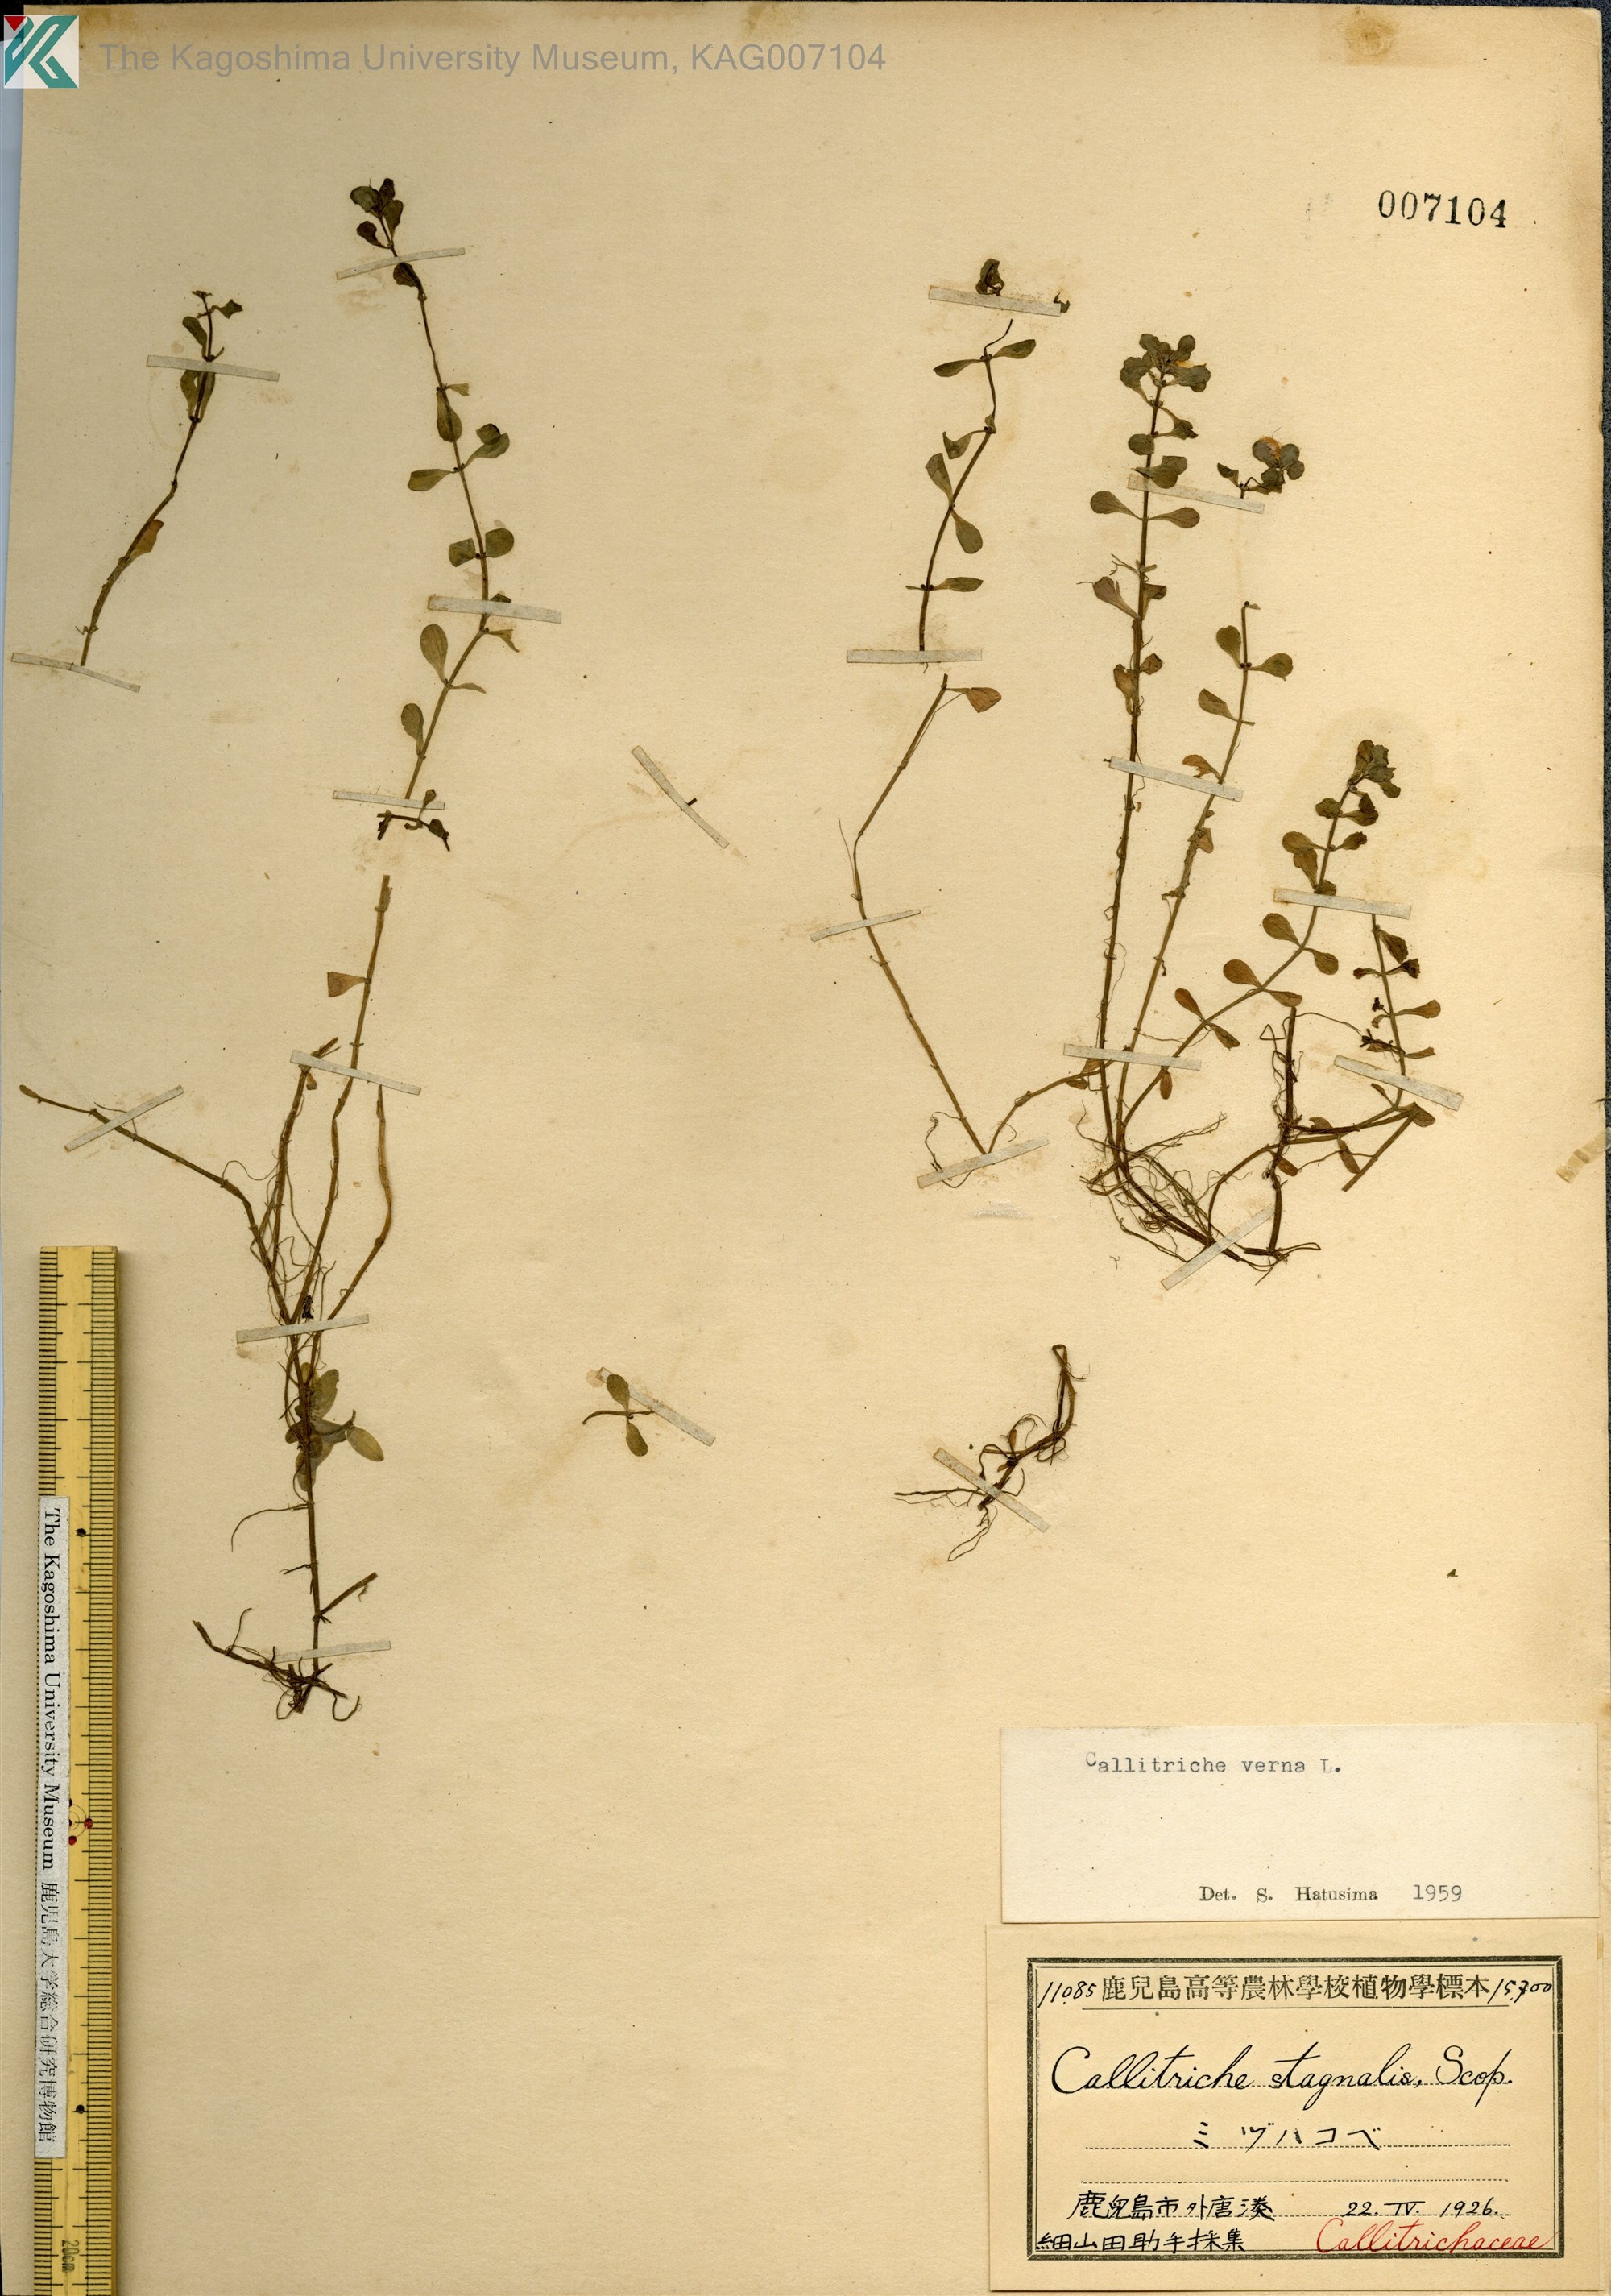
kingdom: Plantae
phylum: Tracheophyta
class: Magnoliopsida
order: Lamiales
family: Plantaginaceae
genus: Callitriche
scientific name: Callitriche palustris
